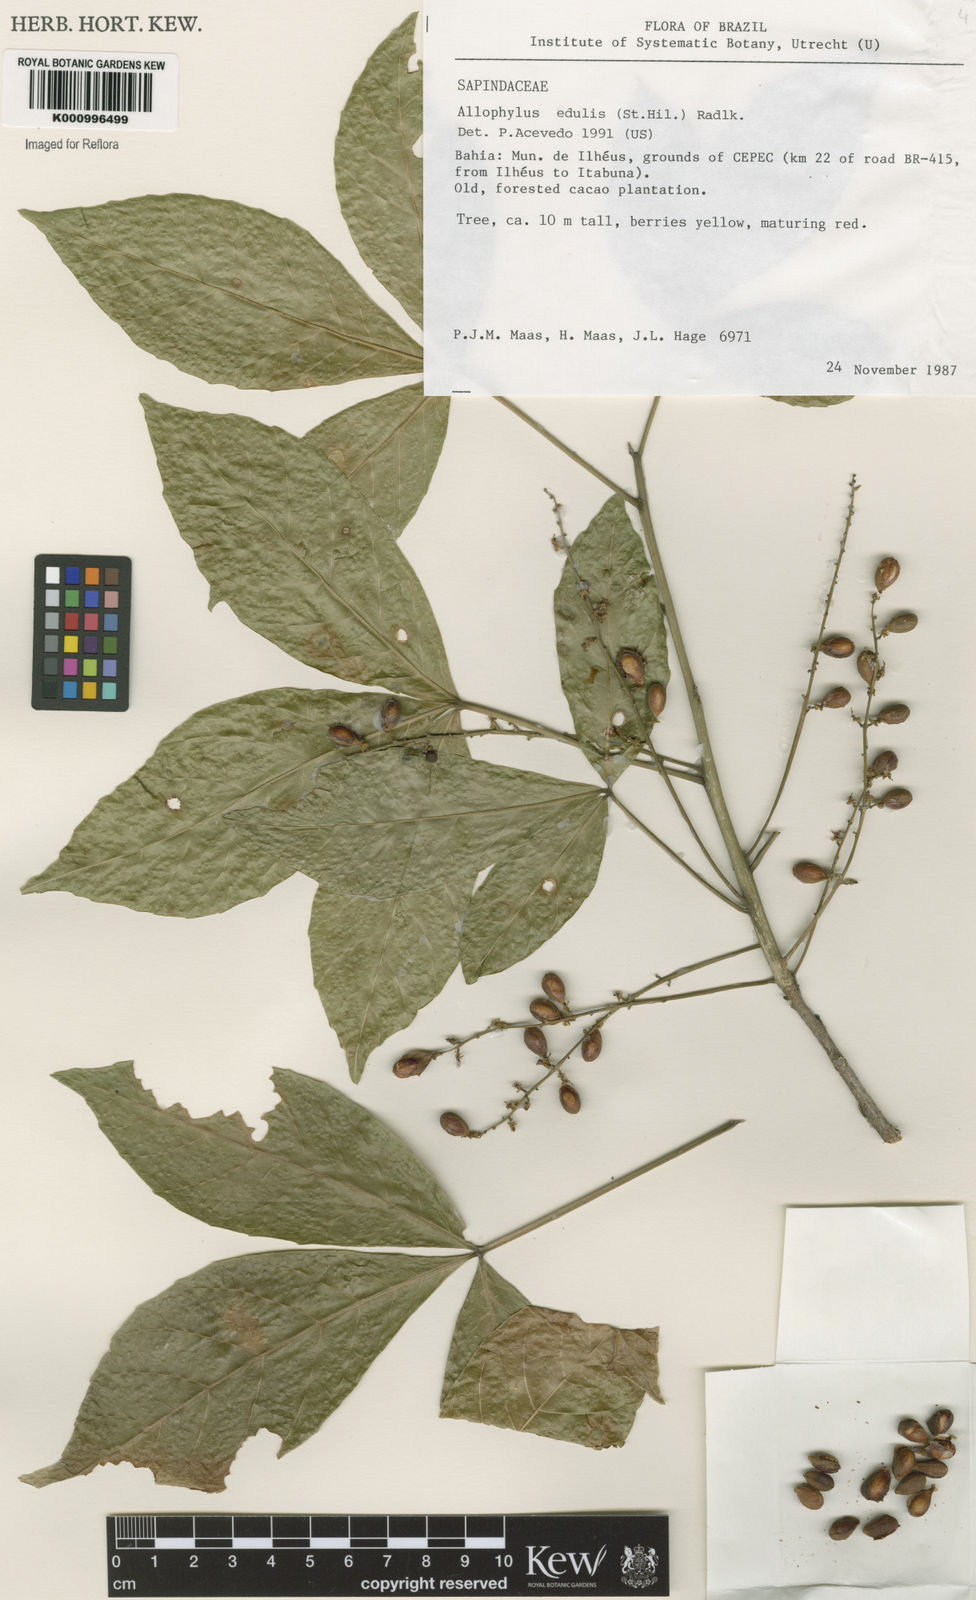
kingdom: Plantae
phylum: Tracheophyta
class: Magnoliopsida
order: Sapindales
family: Sapindaceae
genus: Allophylus
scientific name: Allophylus edulis
